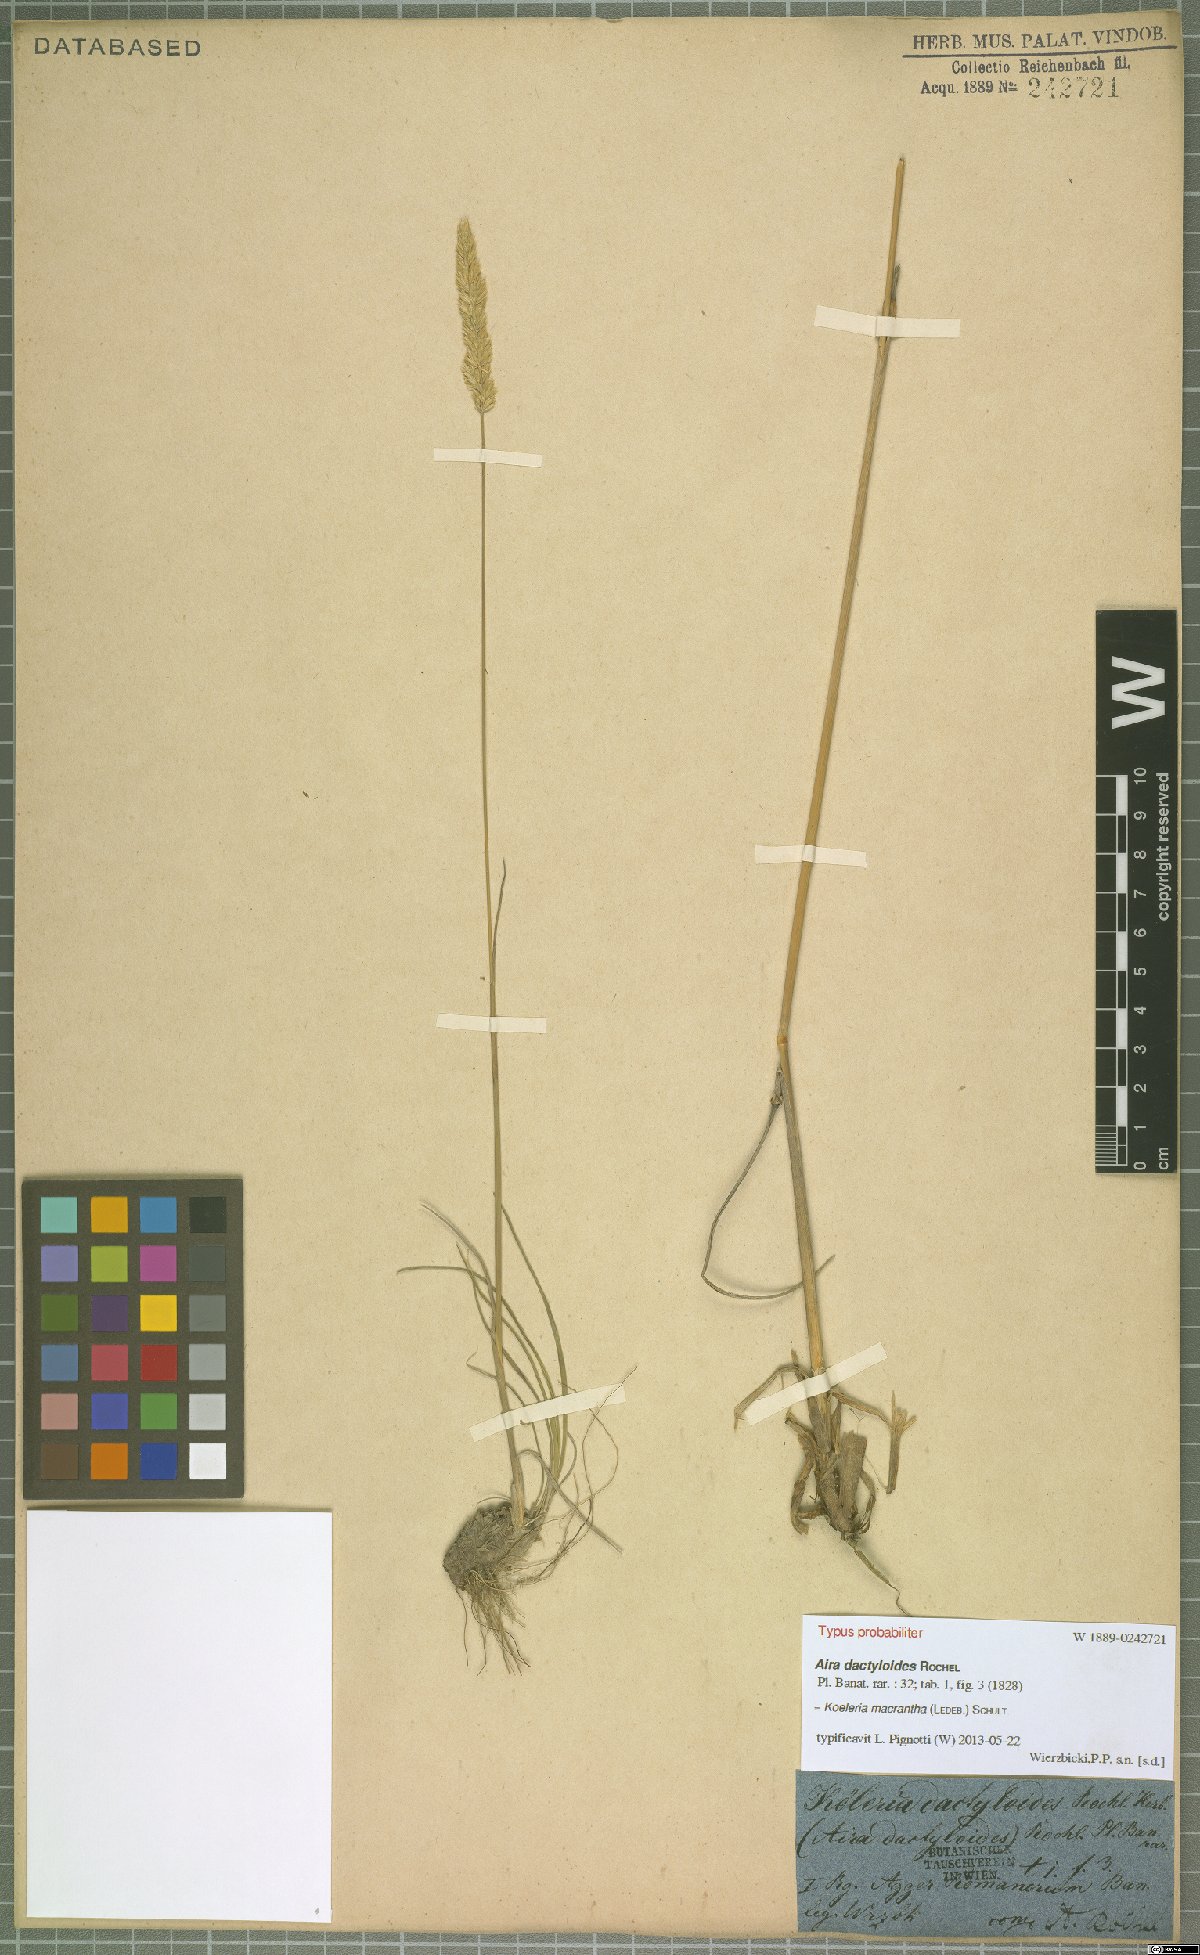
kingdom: Plantae
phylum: Tracheophyta
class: Liliopsida
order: Poales
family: Poaceae
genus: Koeleria
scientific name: Koeleria macrantha
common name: Crested hair-grass
